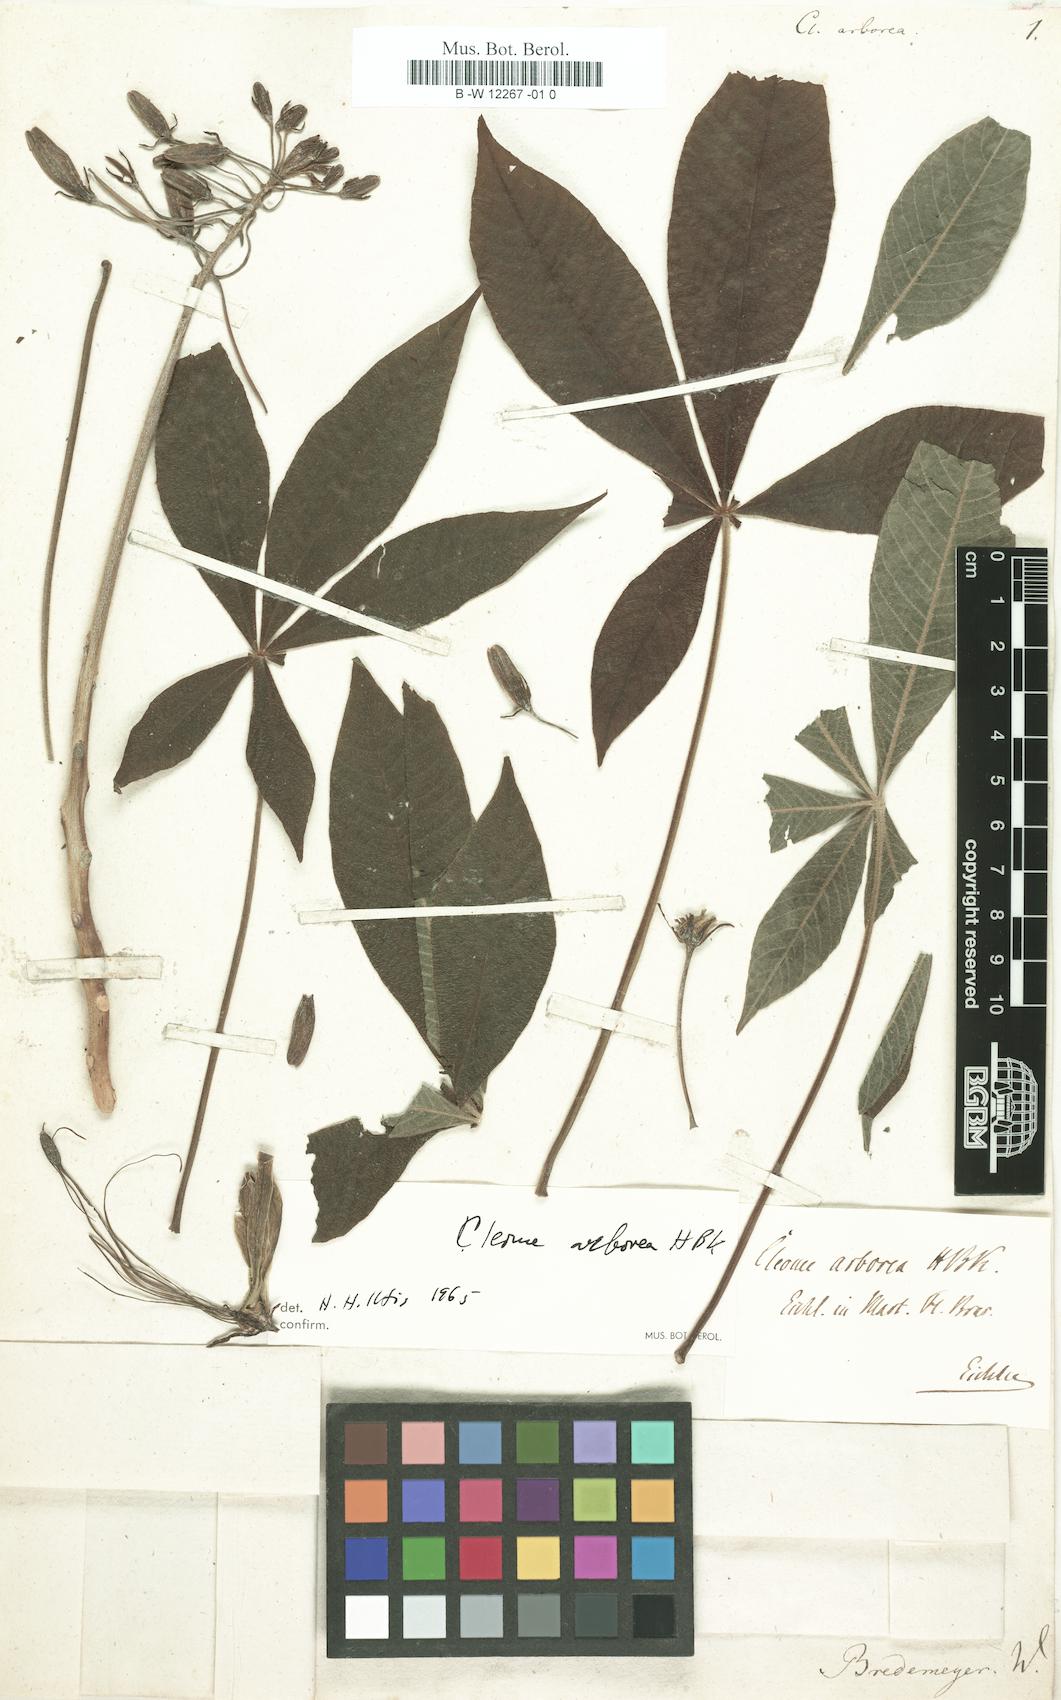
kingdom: Plantae
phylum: Tracheophyta
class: Magnoliopsida
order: Brassicales
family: Cleomaceae
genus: Melidiscus
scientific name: Melidiscus gigantea
